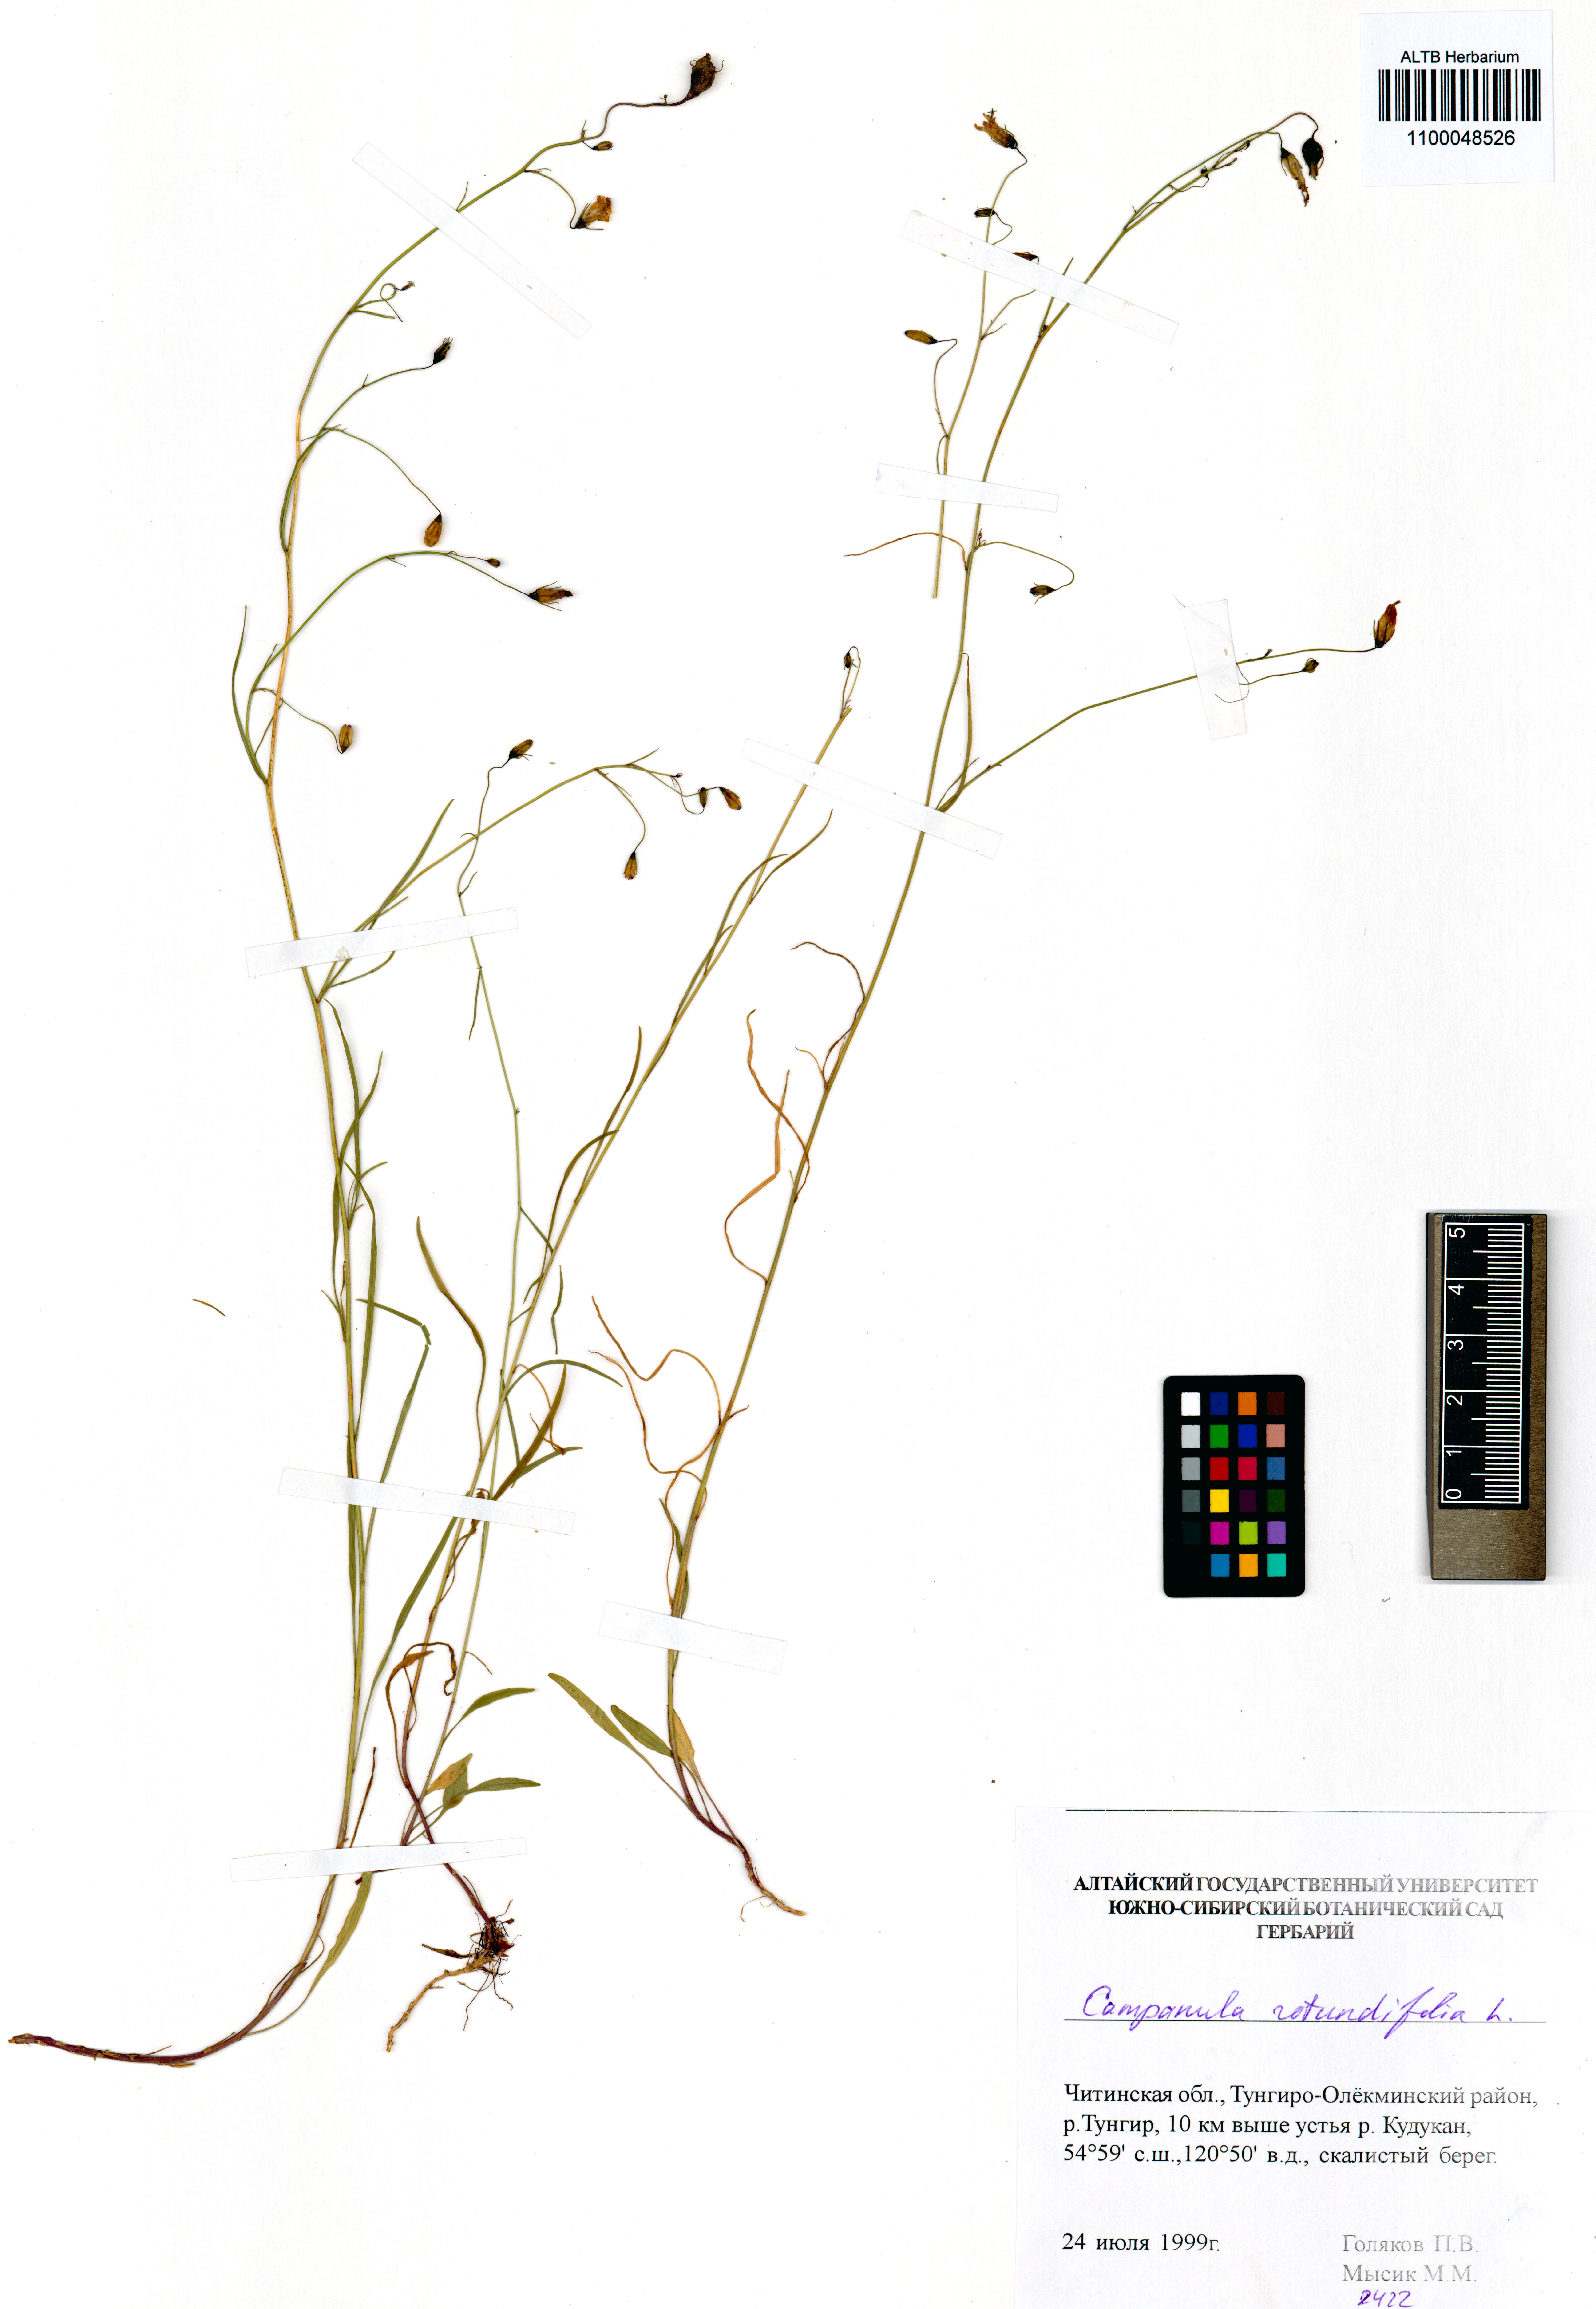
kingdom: Plantae
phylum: Tracheophyta
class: Magnoliopsida
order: Asterales
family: Campanulaceae
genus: Campanula
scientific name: Campanula rotundifolia
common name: Harebell
